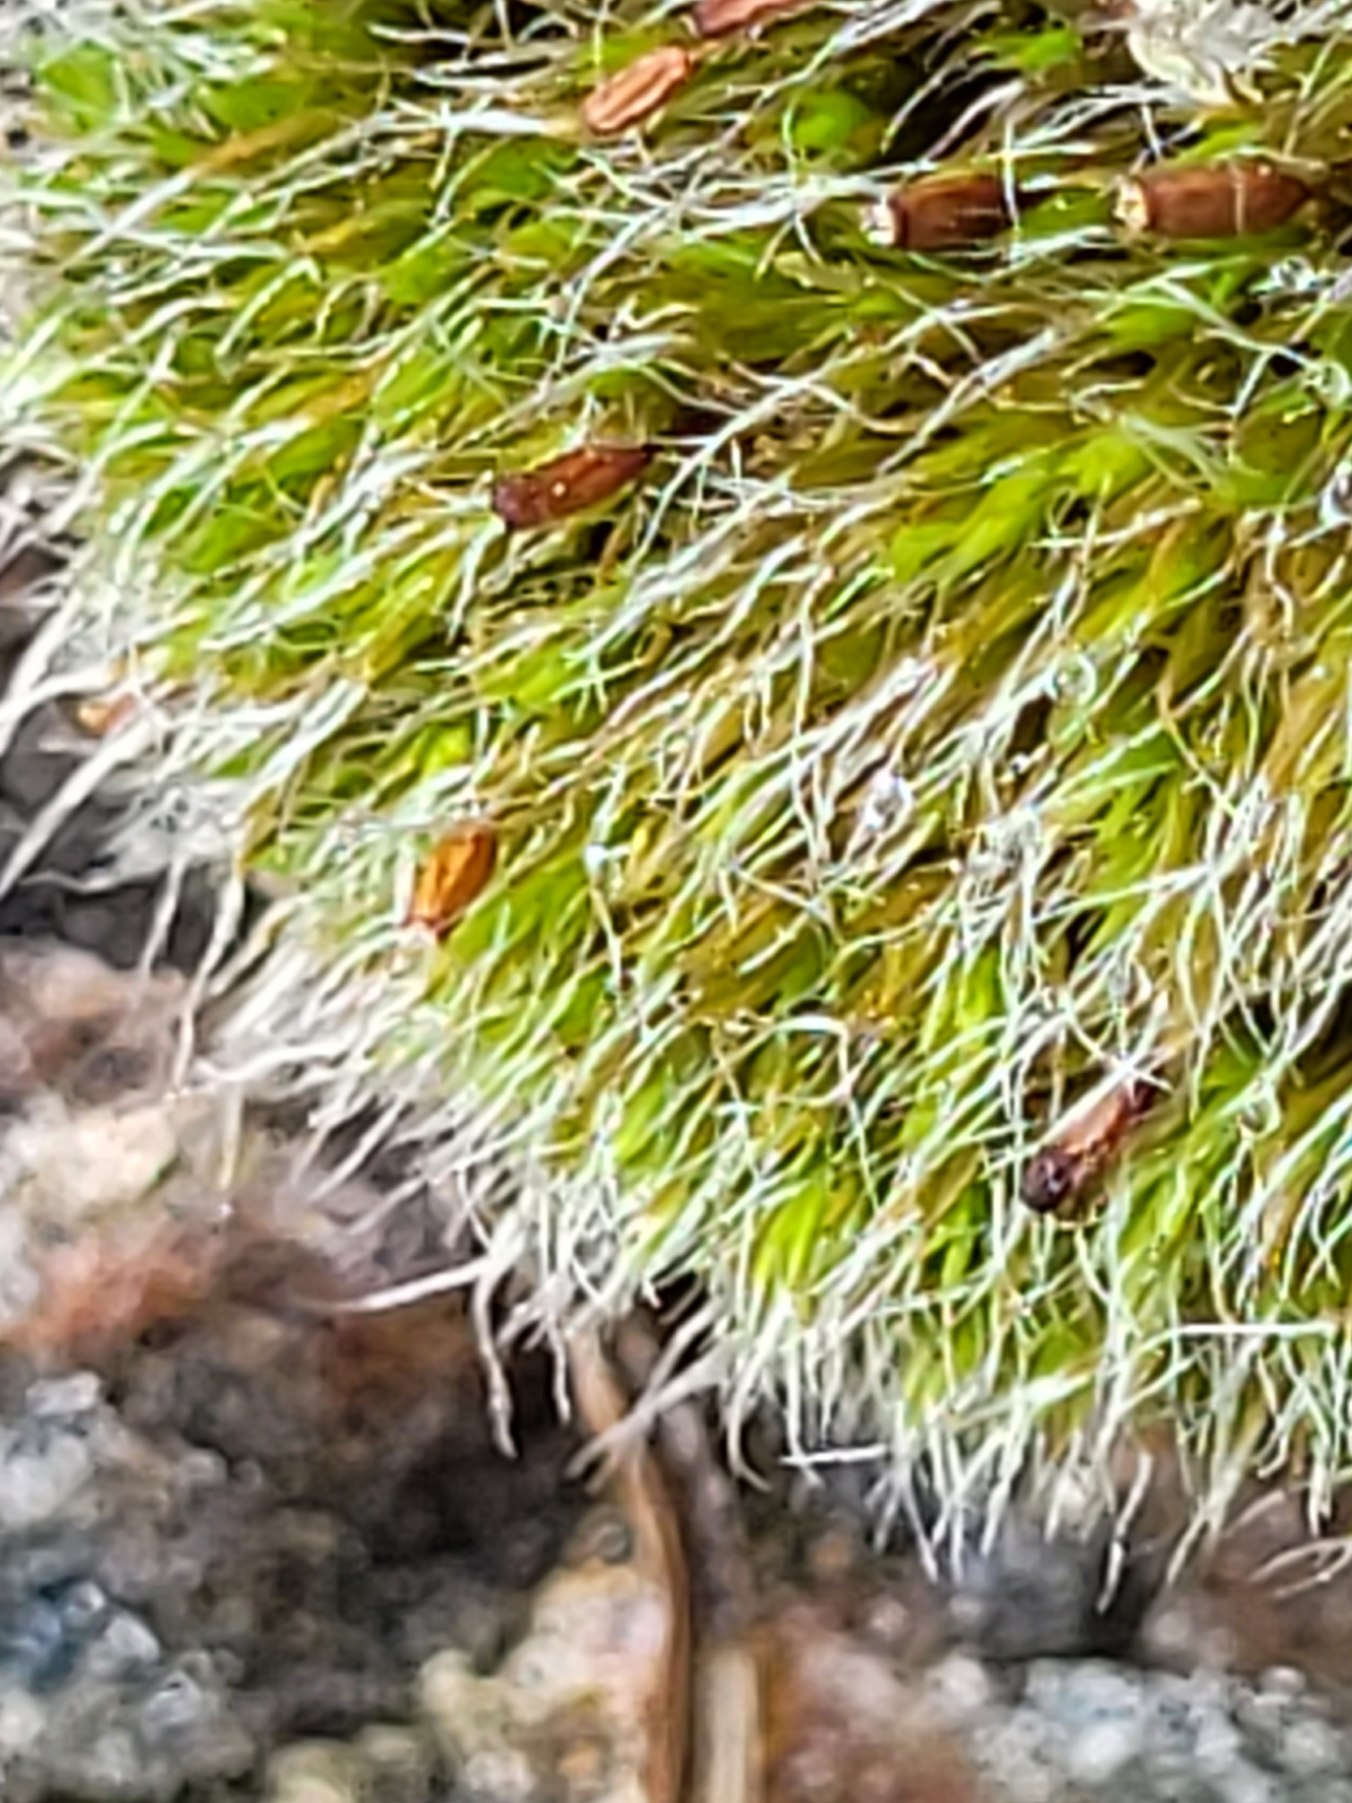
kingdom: Plantae
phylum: Bryophyta
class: Bryopsida
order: Grimmiales
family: Grimmiaceae
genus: Grimmia
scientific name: Grimmia pulvinata
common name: Pude-gråmos
